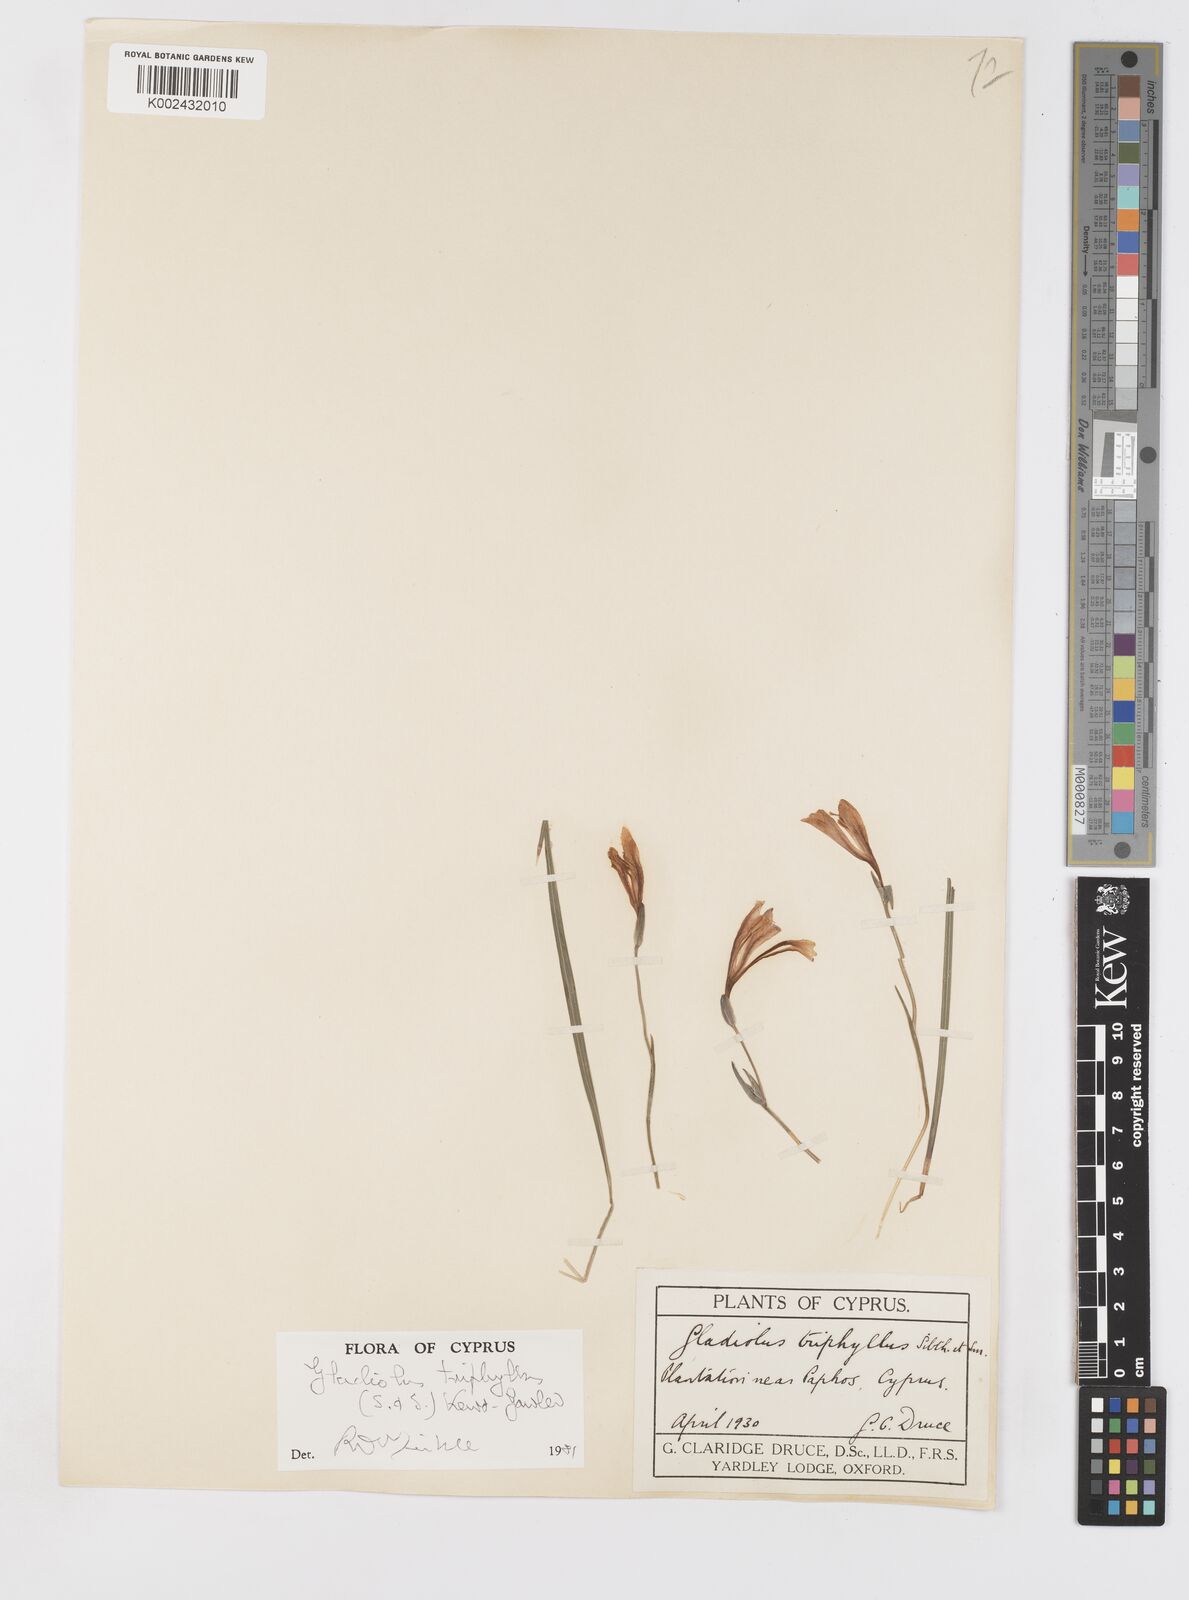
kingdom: Plantae
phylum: Tracheophyta
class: Liliopsida
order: Asparagales
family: Iridaceae
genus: Gladiolus
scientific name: Gladiolus triphyllus
